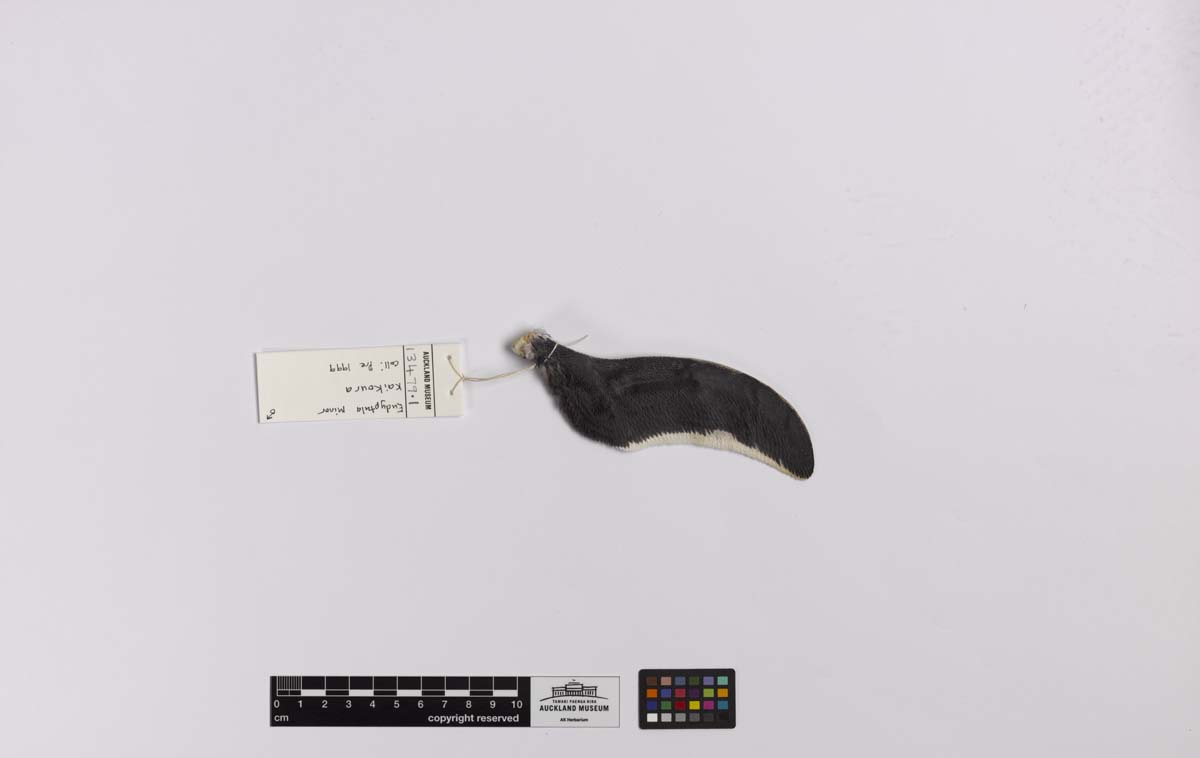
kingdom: Animalia
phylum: Chordata
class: Aves
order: Sphenisciformes
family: Spheniscidae
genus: Eudyptula
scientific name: Eudyptula minor
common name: Little penguin
